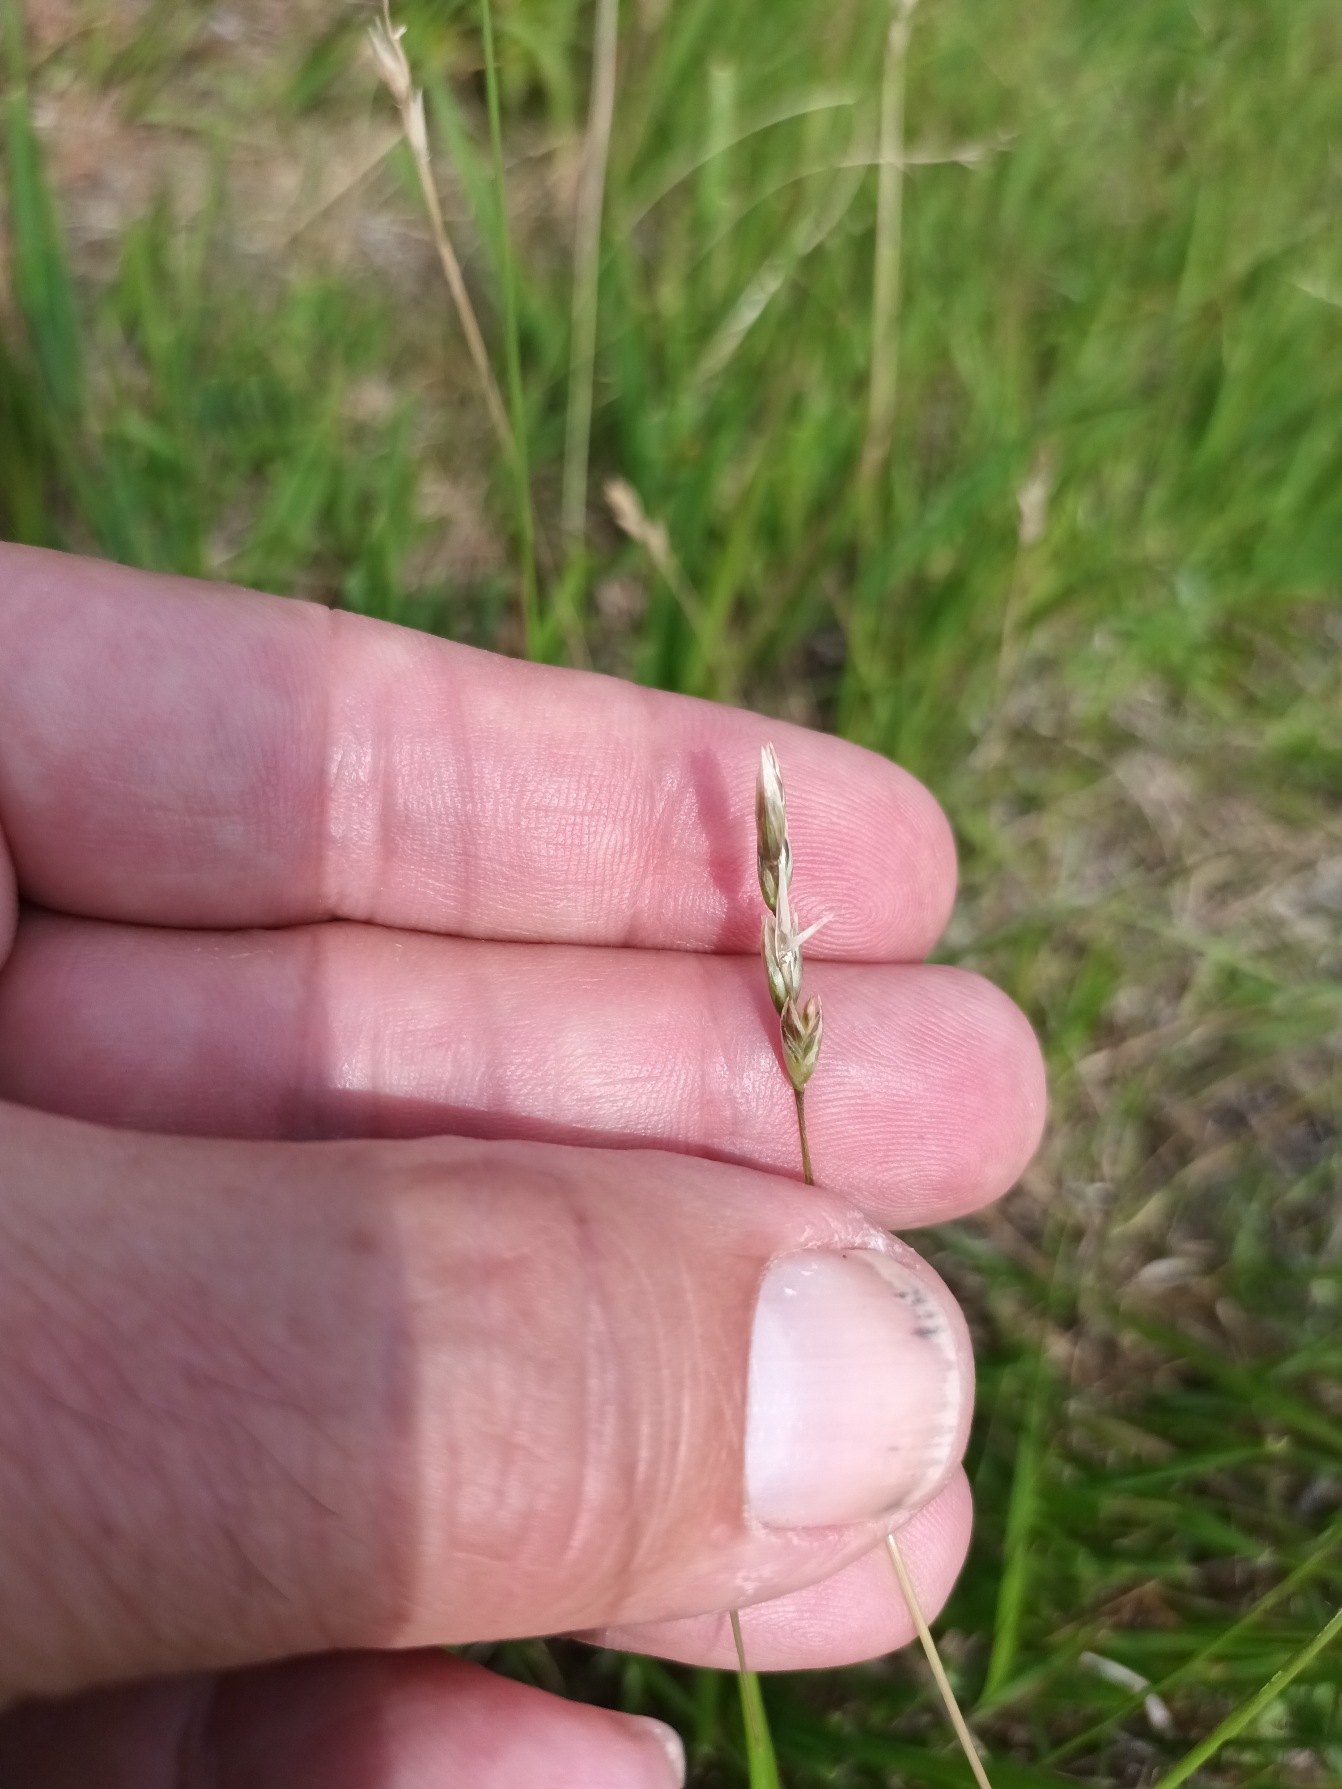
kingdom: Plantae
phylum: Tracheophyta
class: Liliopsida
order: Poales
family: Poaceae
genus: Danthonia
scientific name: Danthonia decumbens
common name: Tandbælg
